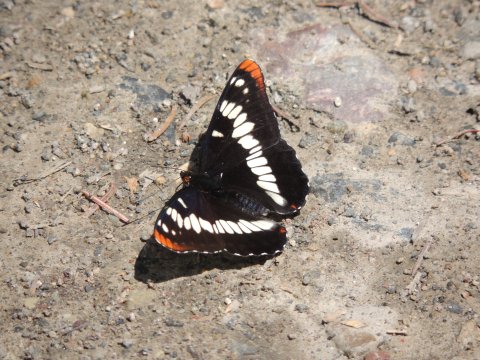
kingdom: Animalia
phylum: Arthropoda
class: Insecta
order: Lepidoptera
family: Nymphalidae
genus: Limenitis
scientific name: Limenitis lorquini
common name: Lorquin's Admiral
